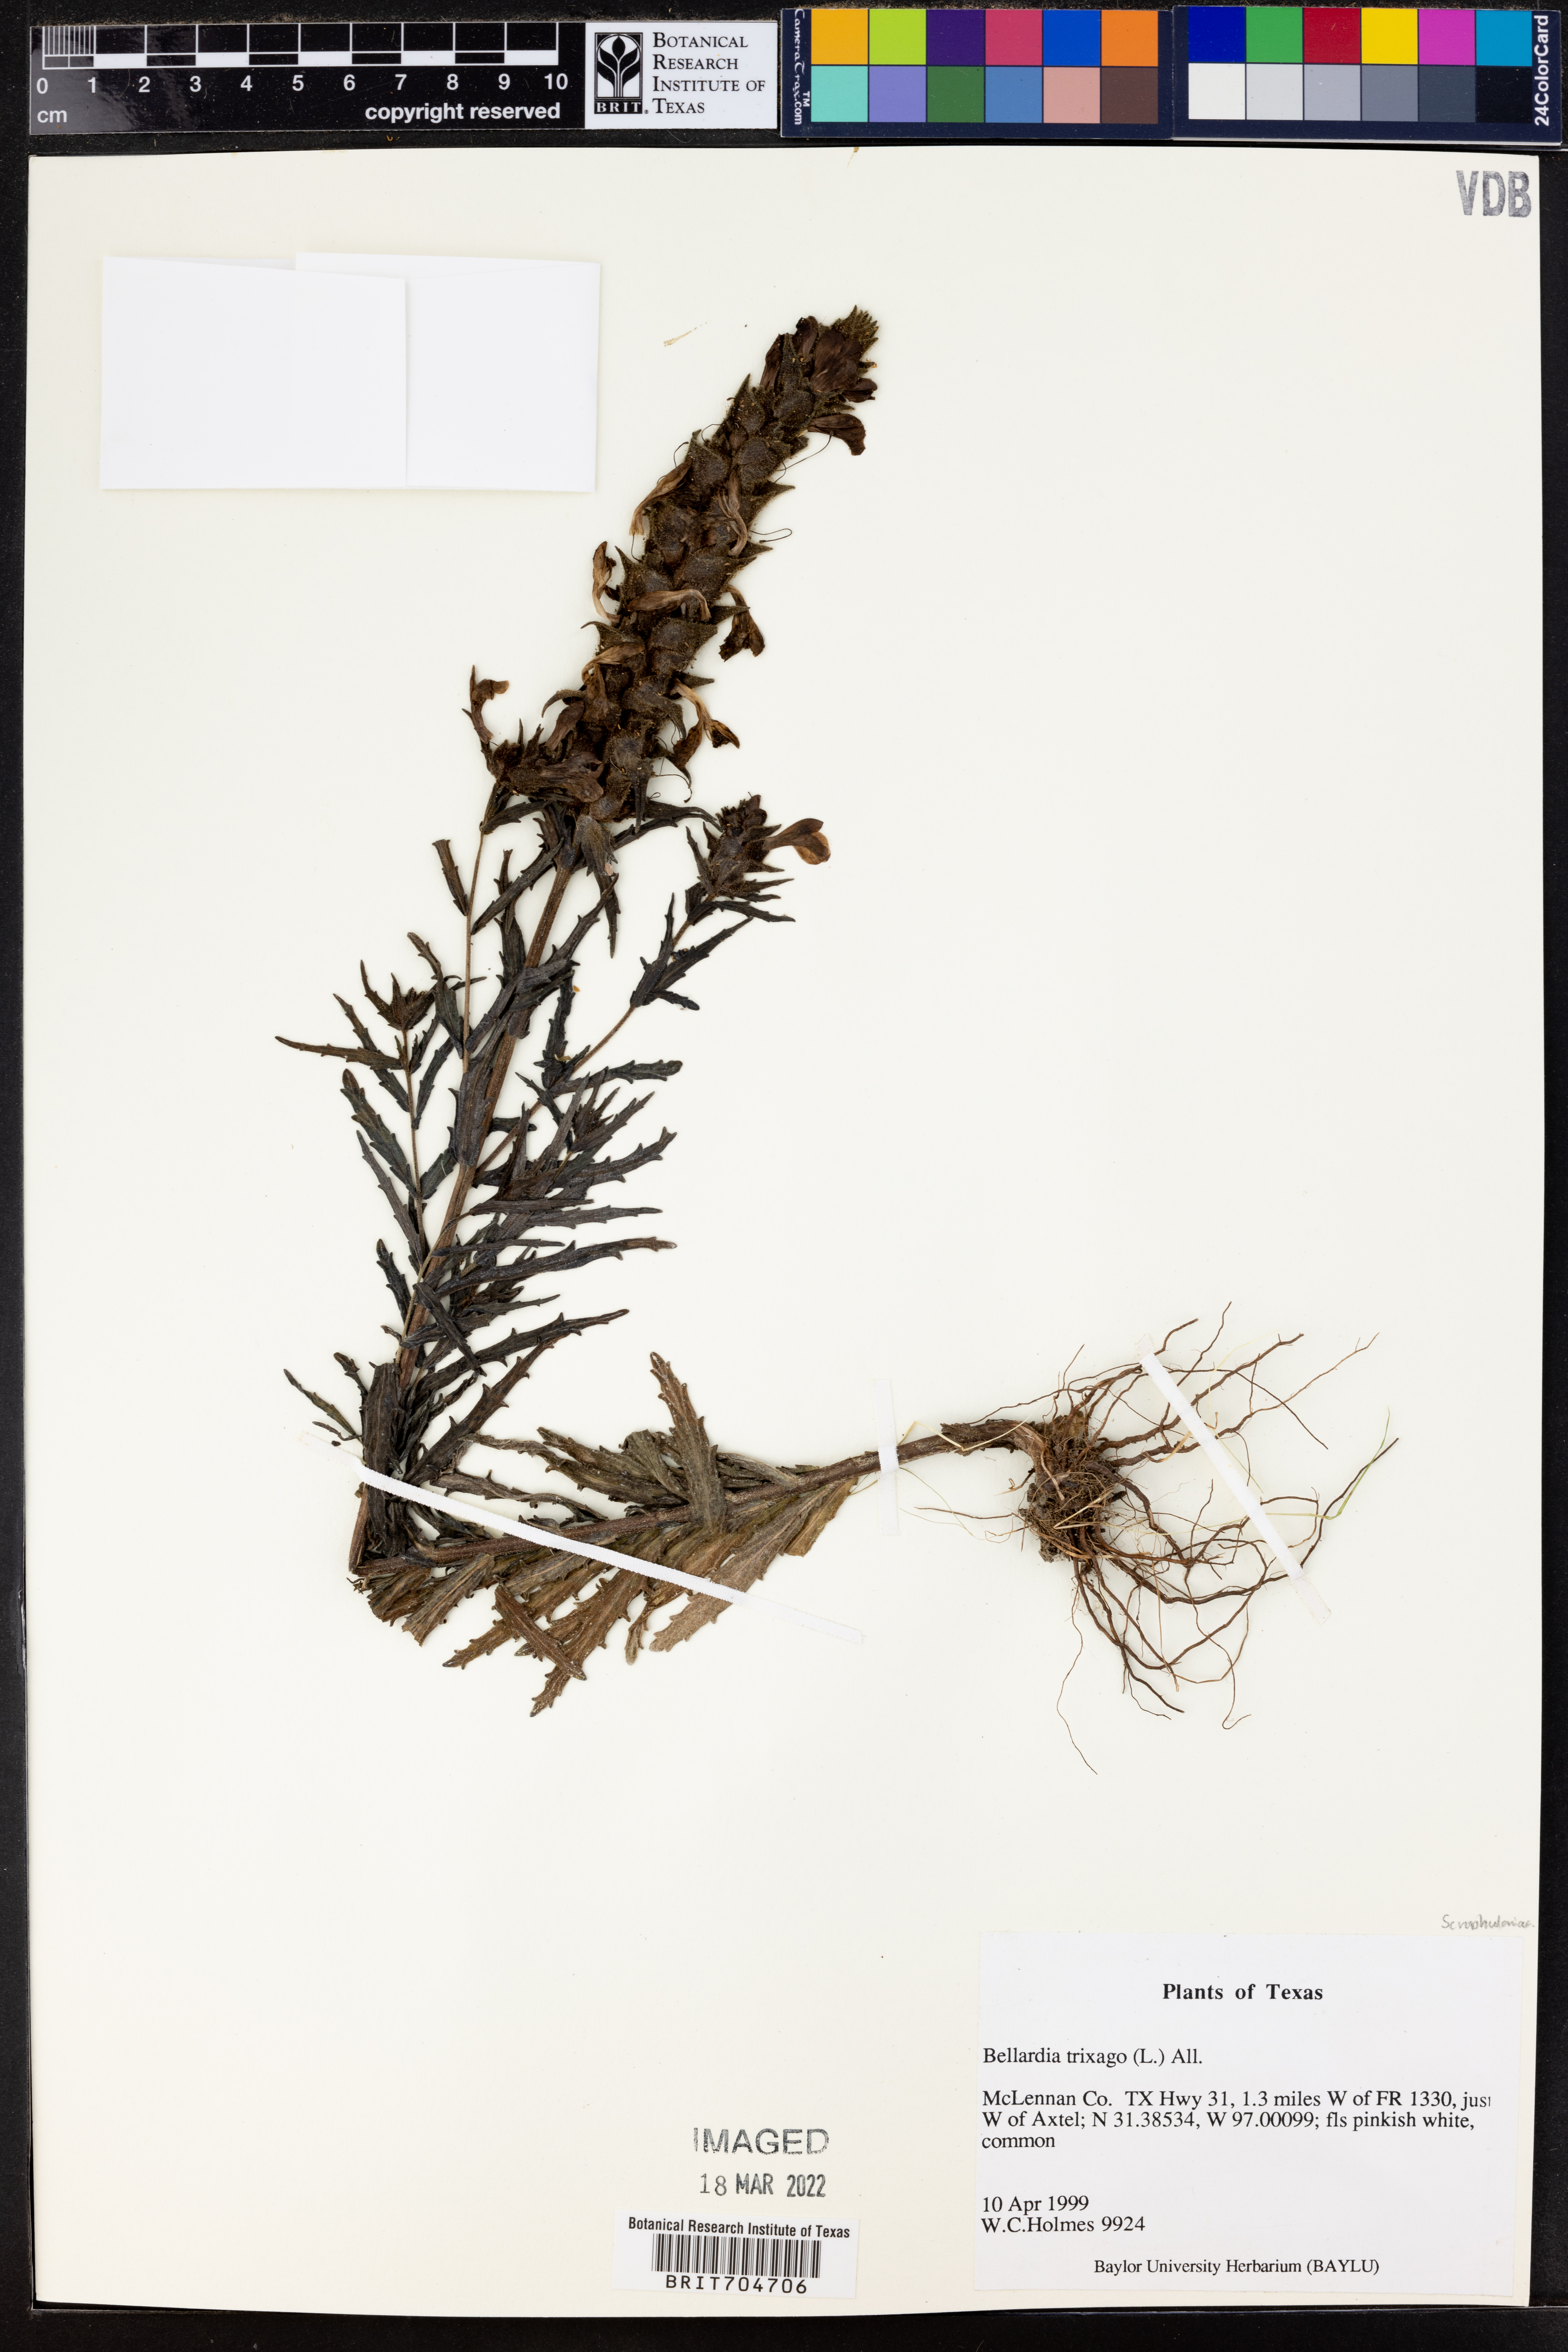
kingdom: Plantae
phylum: Tracheophyta
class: Magnoliopsida
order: Lamiales
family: Orobanchaceae
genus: Bellardia
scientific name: Bellardia trixago
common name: Mediterranean lineseed
